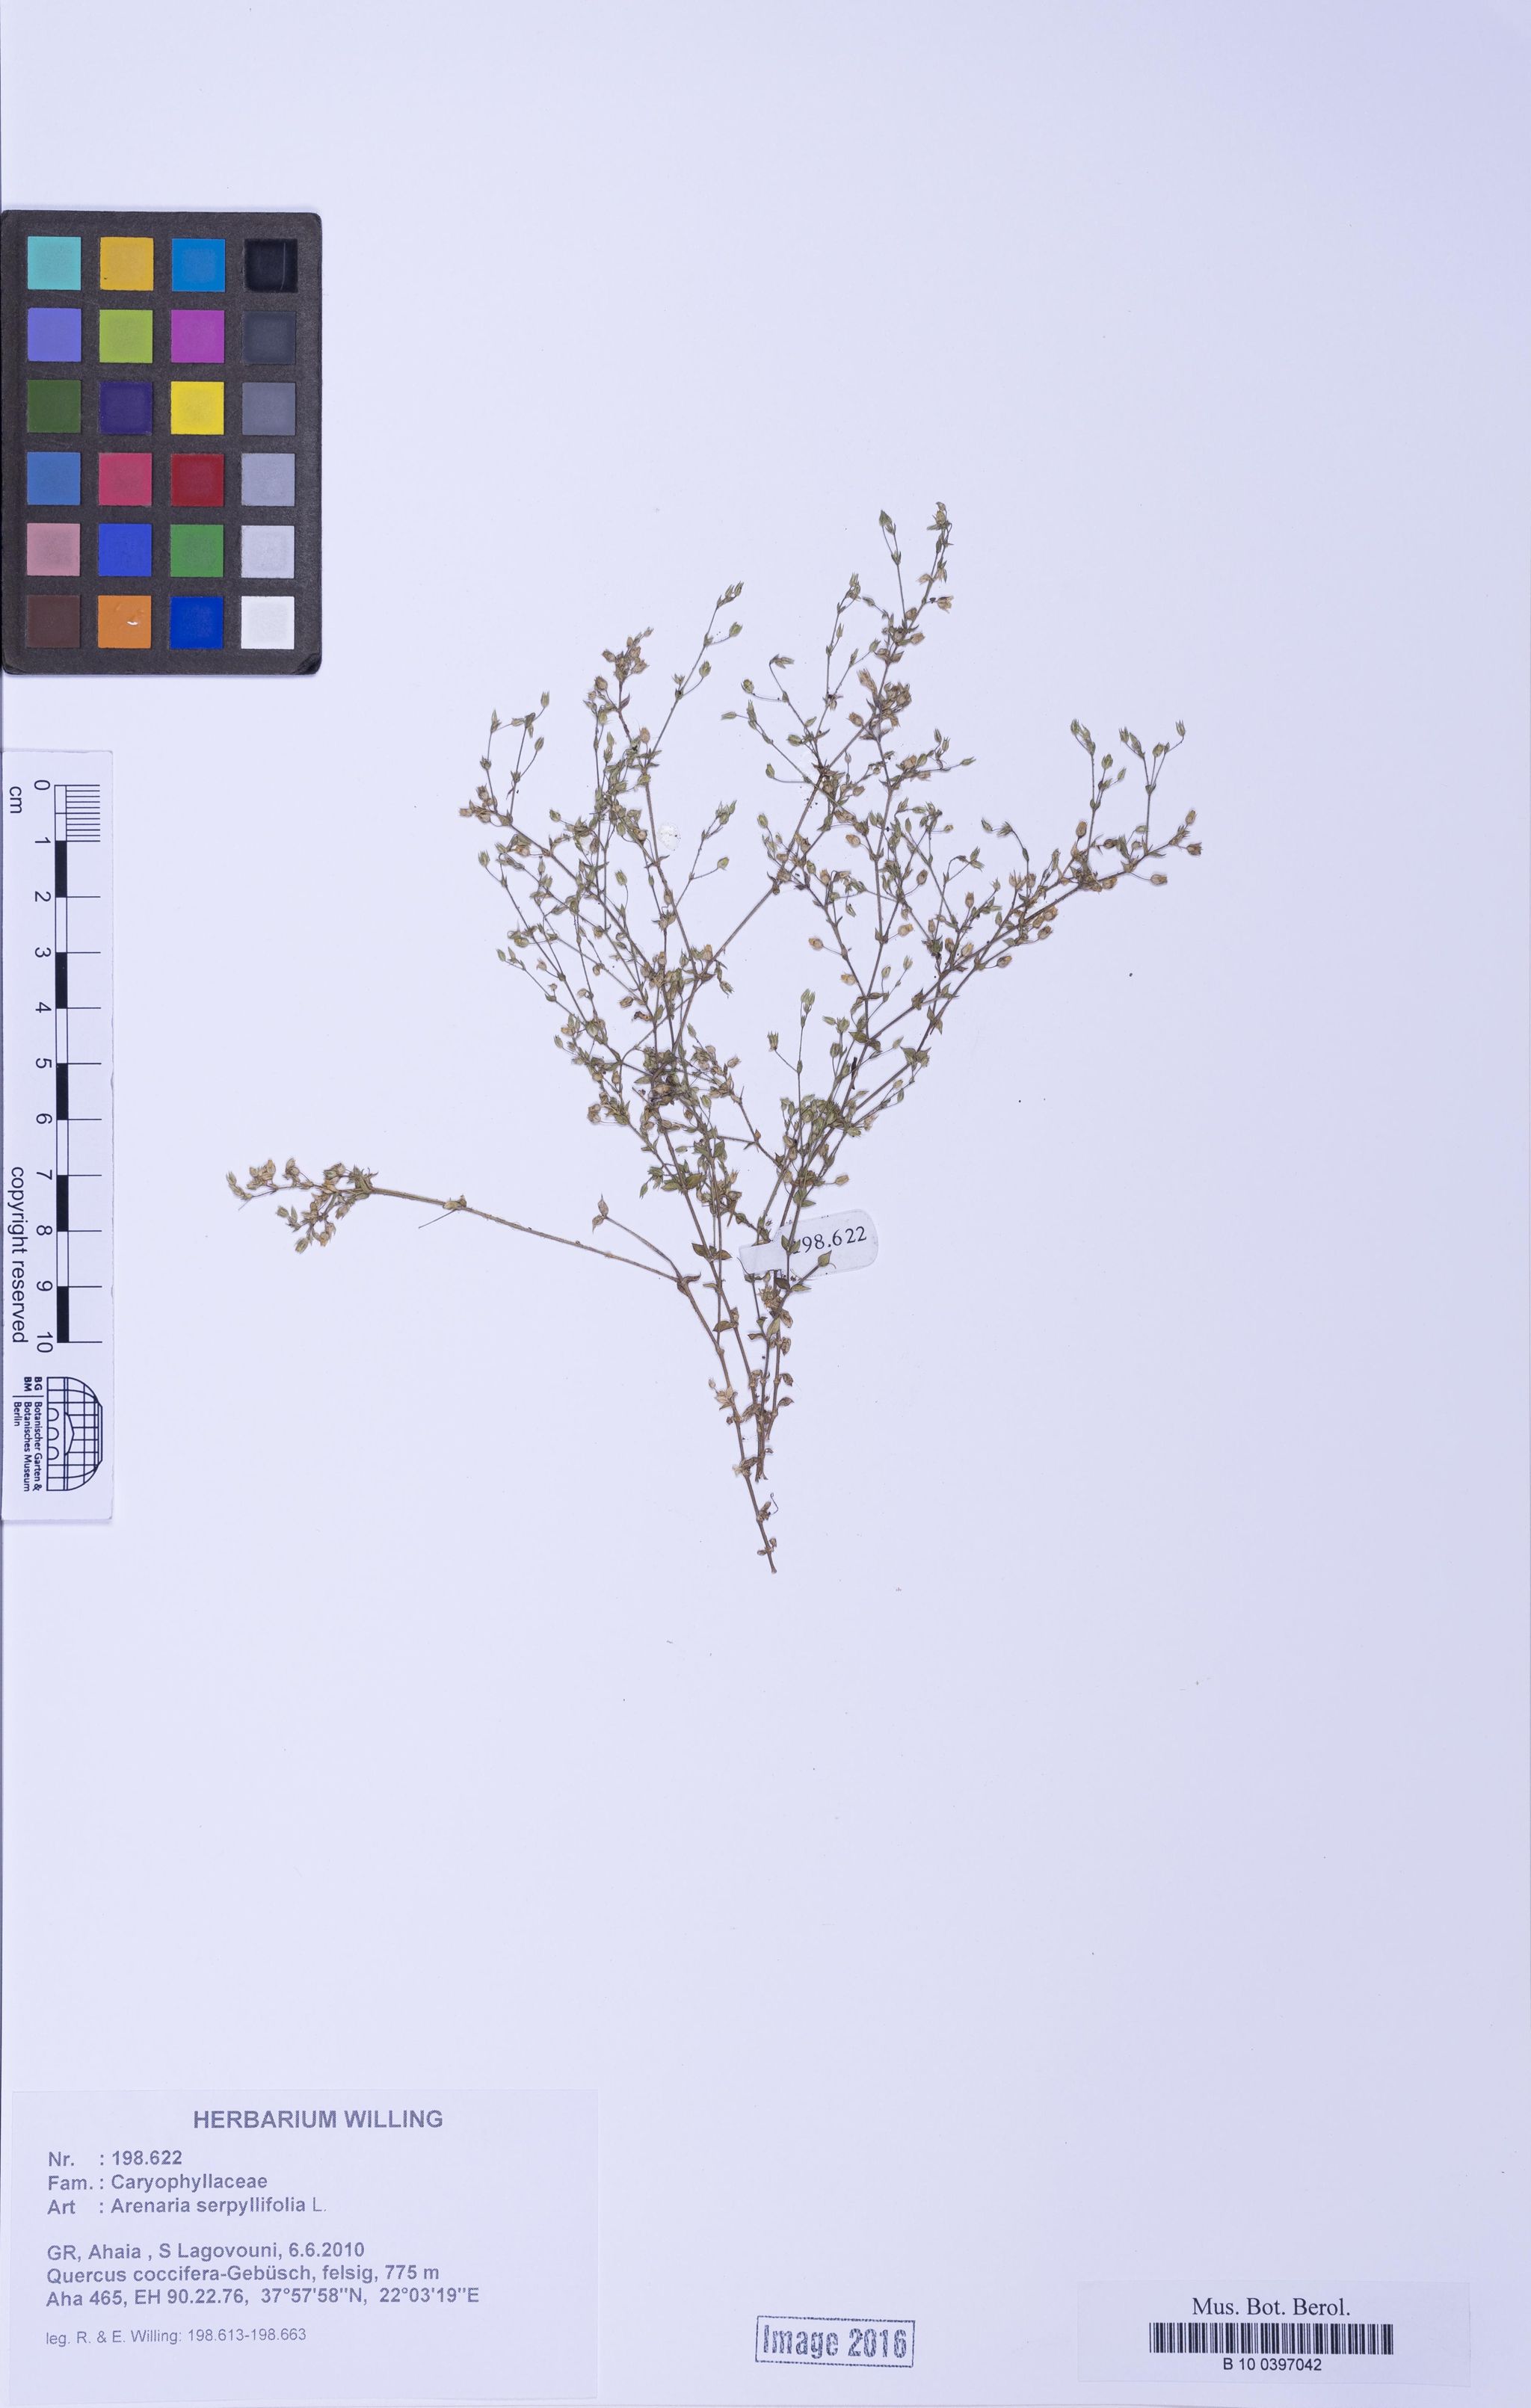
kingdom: Plantae
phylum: Tracheophyta
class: Magnoliopsida
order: Caryophyllales
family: Caryophyllaceae
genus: Arenaria
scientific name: Arenaria serpyllifolia
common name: Thyme-leaved sandwort
